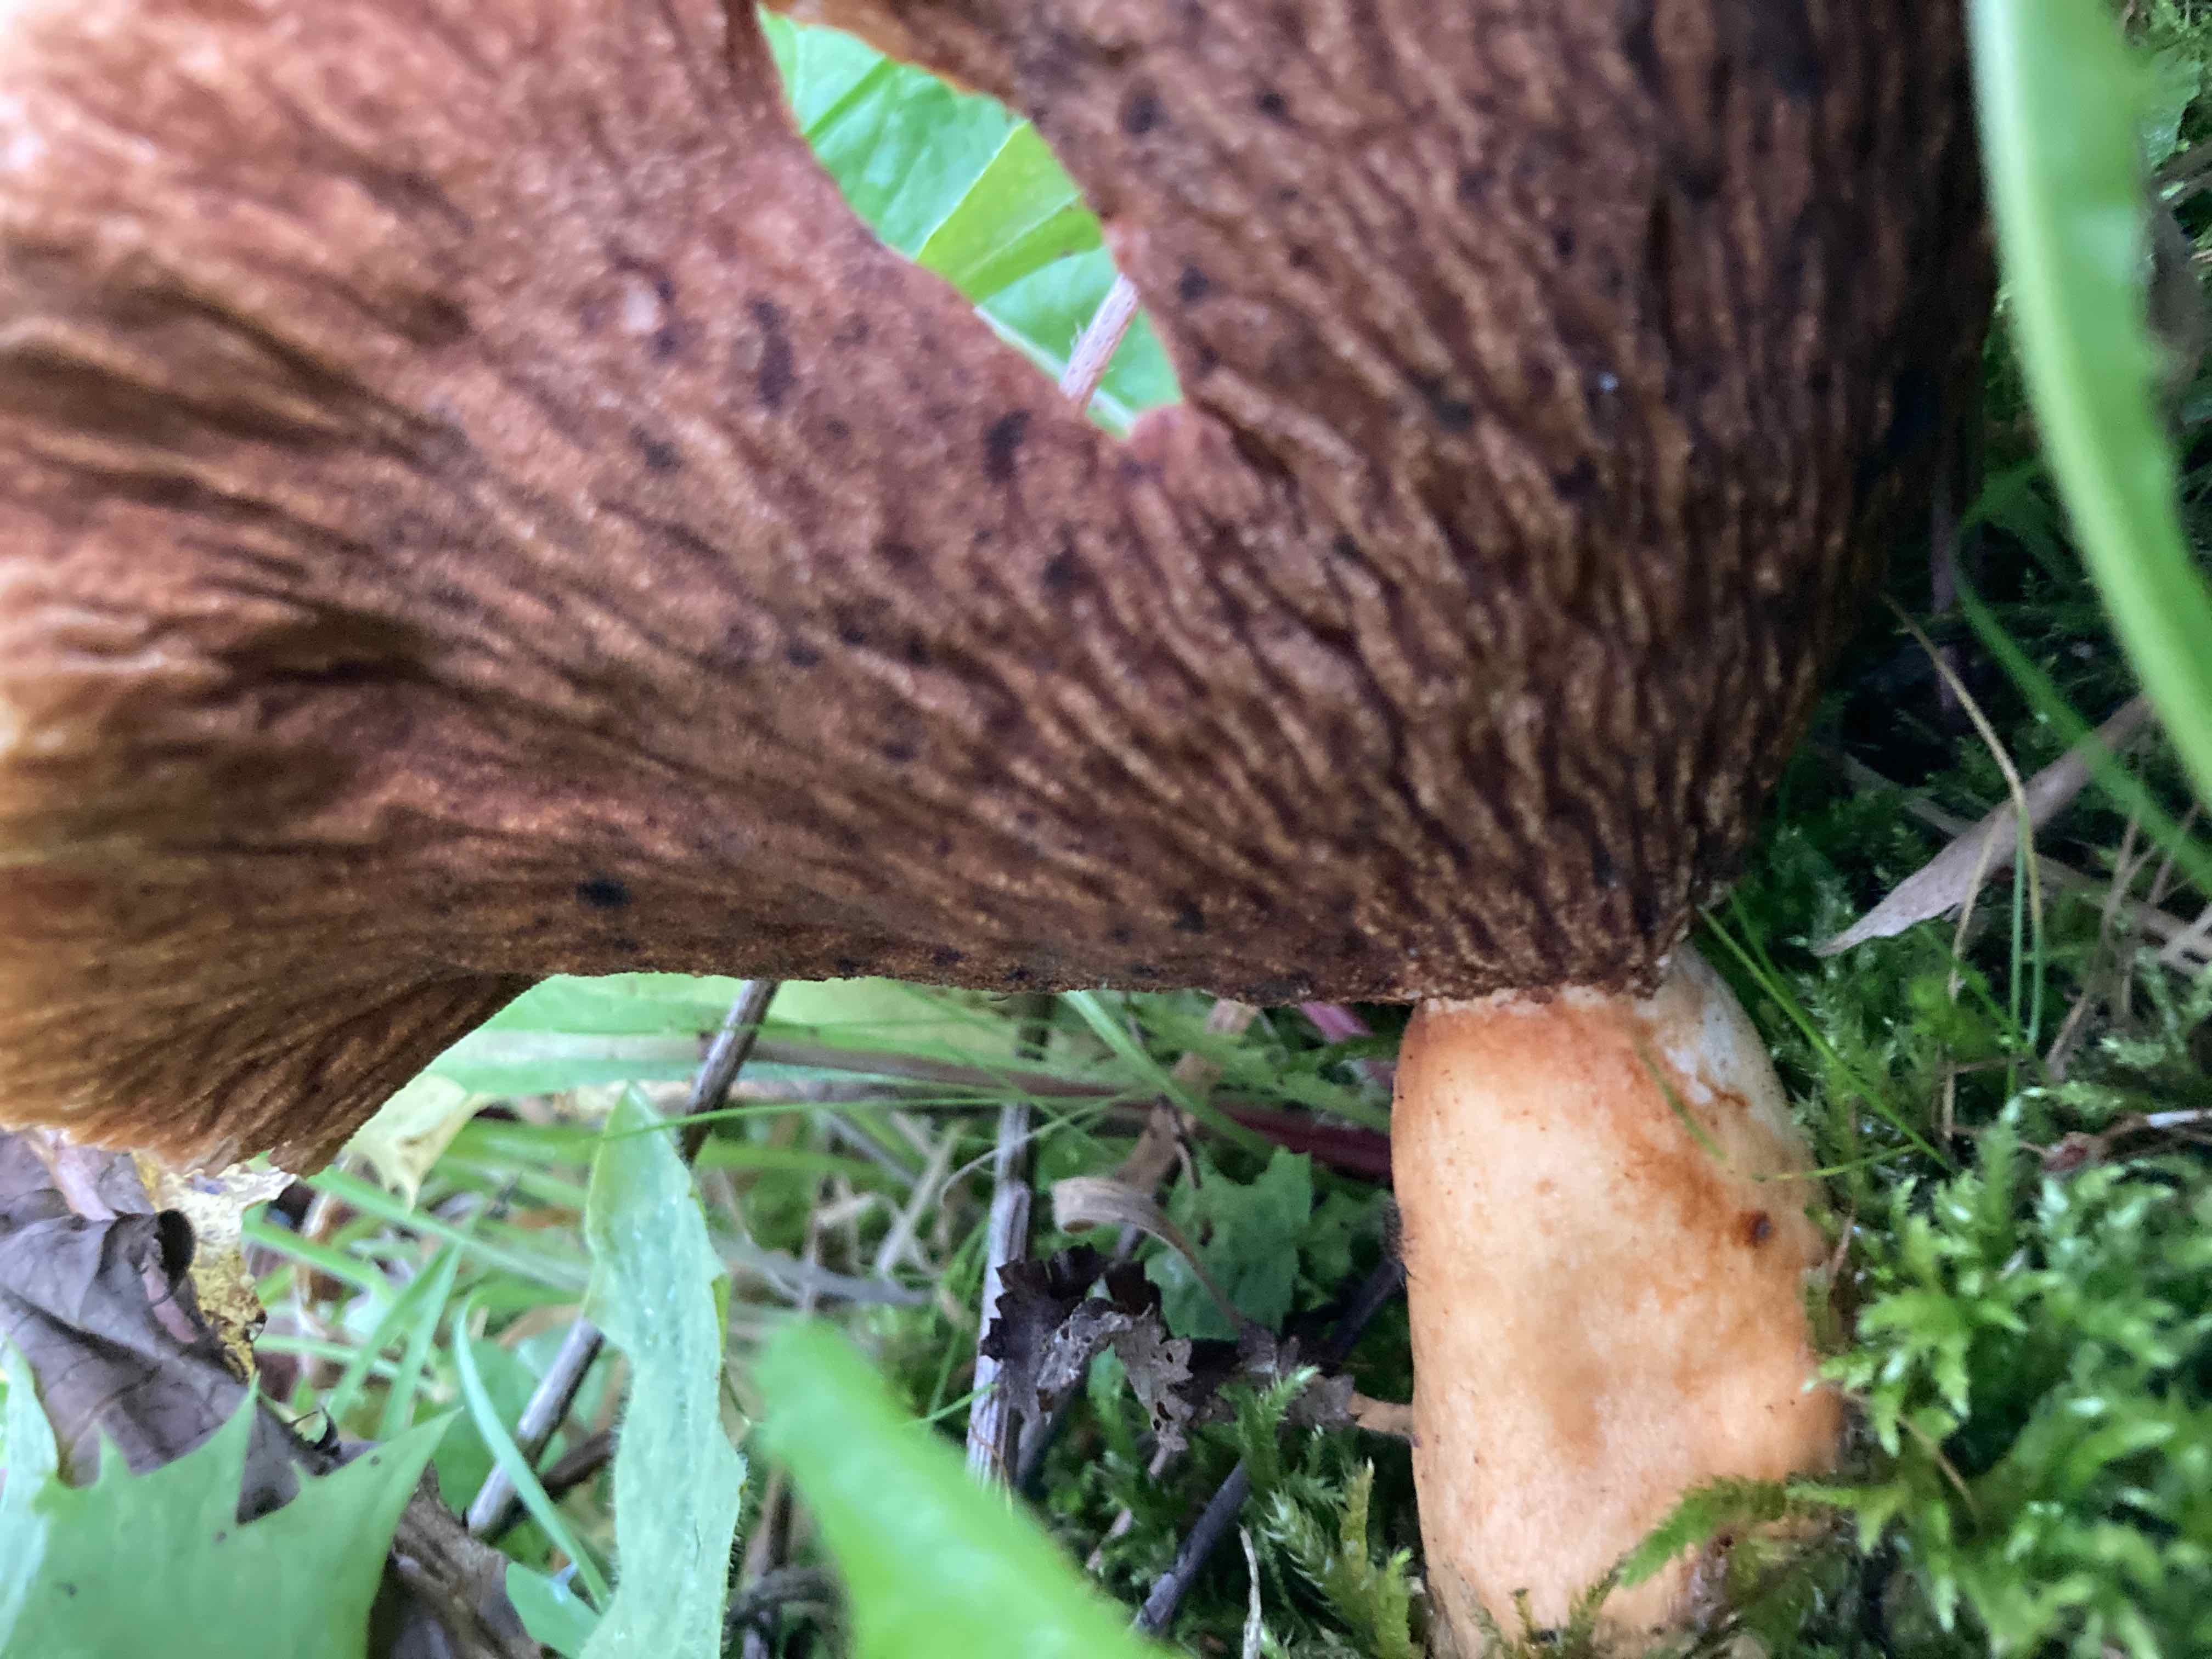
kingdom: Fungi
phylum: Basidiomycota
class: Agaricomycetes
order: Russulales
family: Russulaceae
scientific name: Russulaceae
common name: skørhatfamilien
